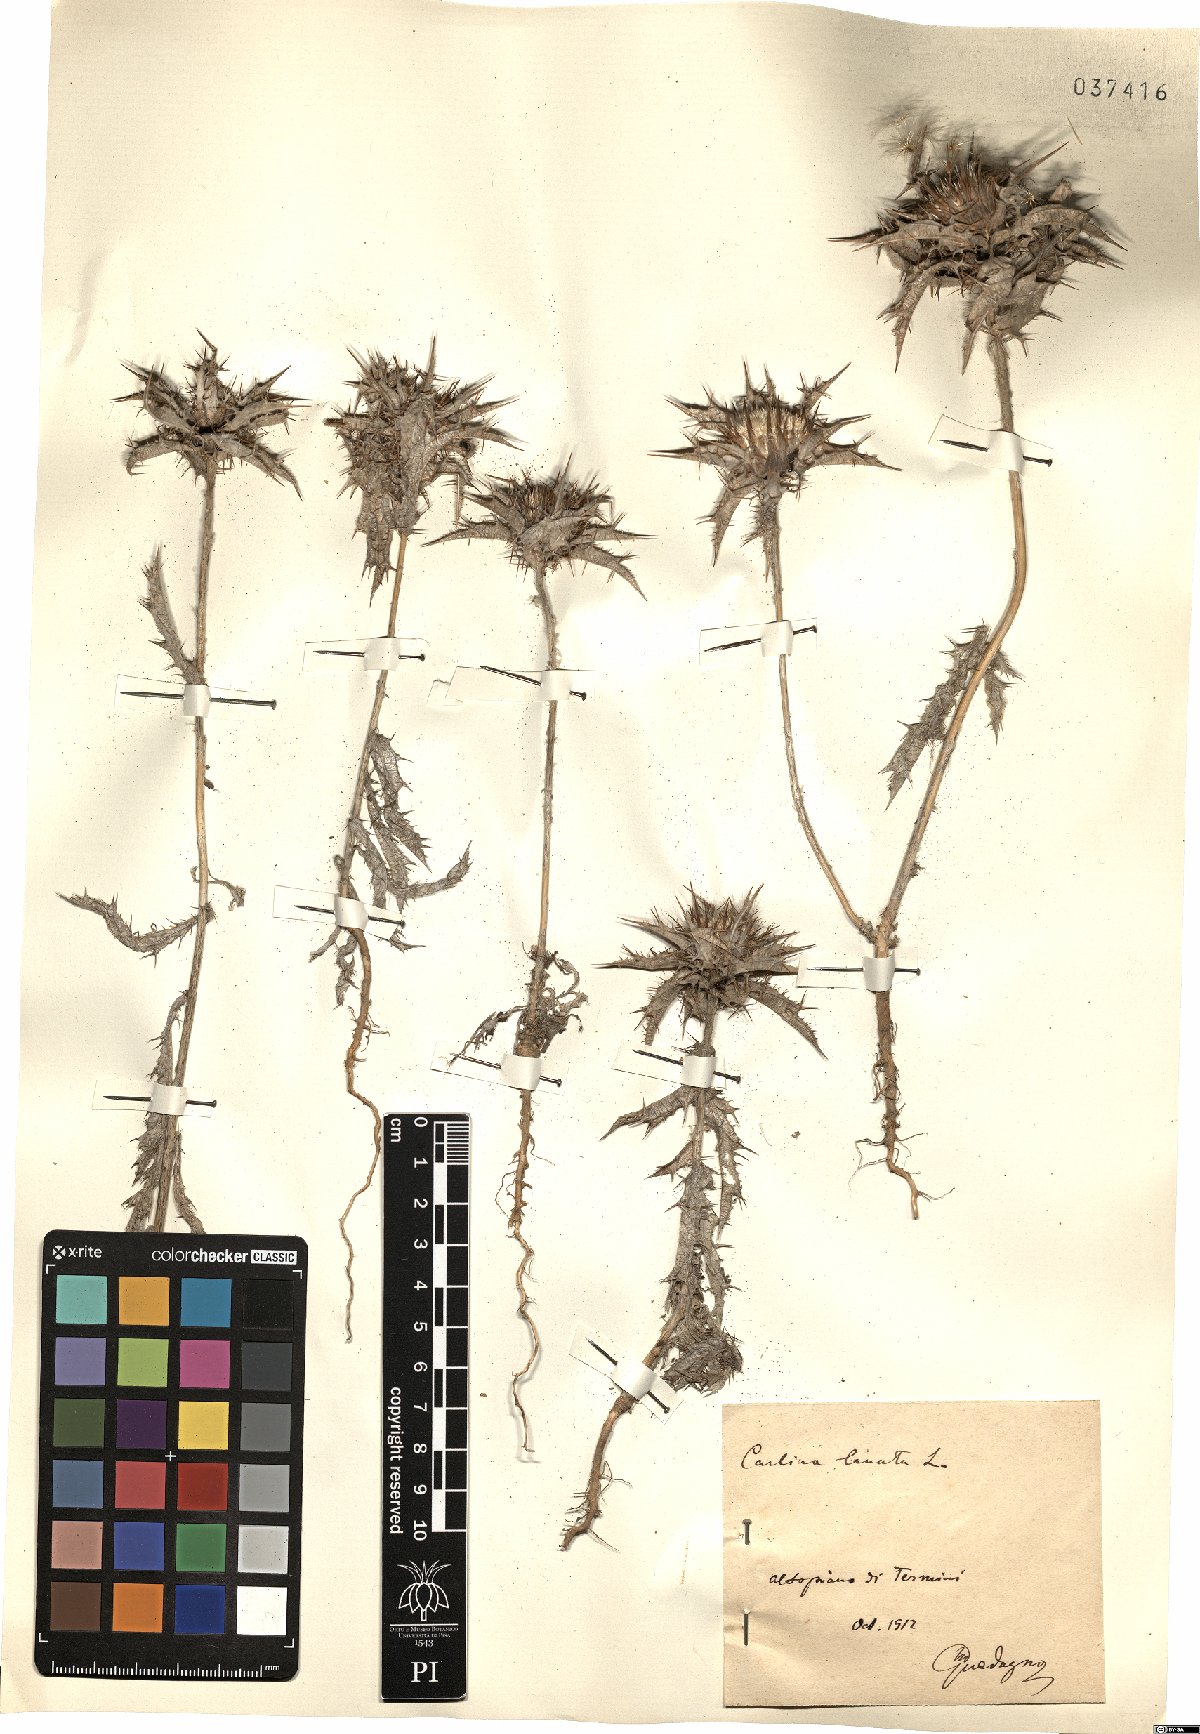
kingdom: Plantae
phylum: Tracheophyta
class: Magnoliopsida
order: Asterales
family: Asteraceae
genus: Carlina
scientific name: Carlina lanata
